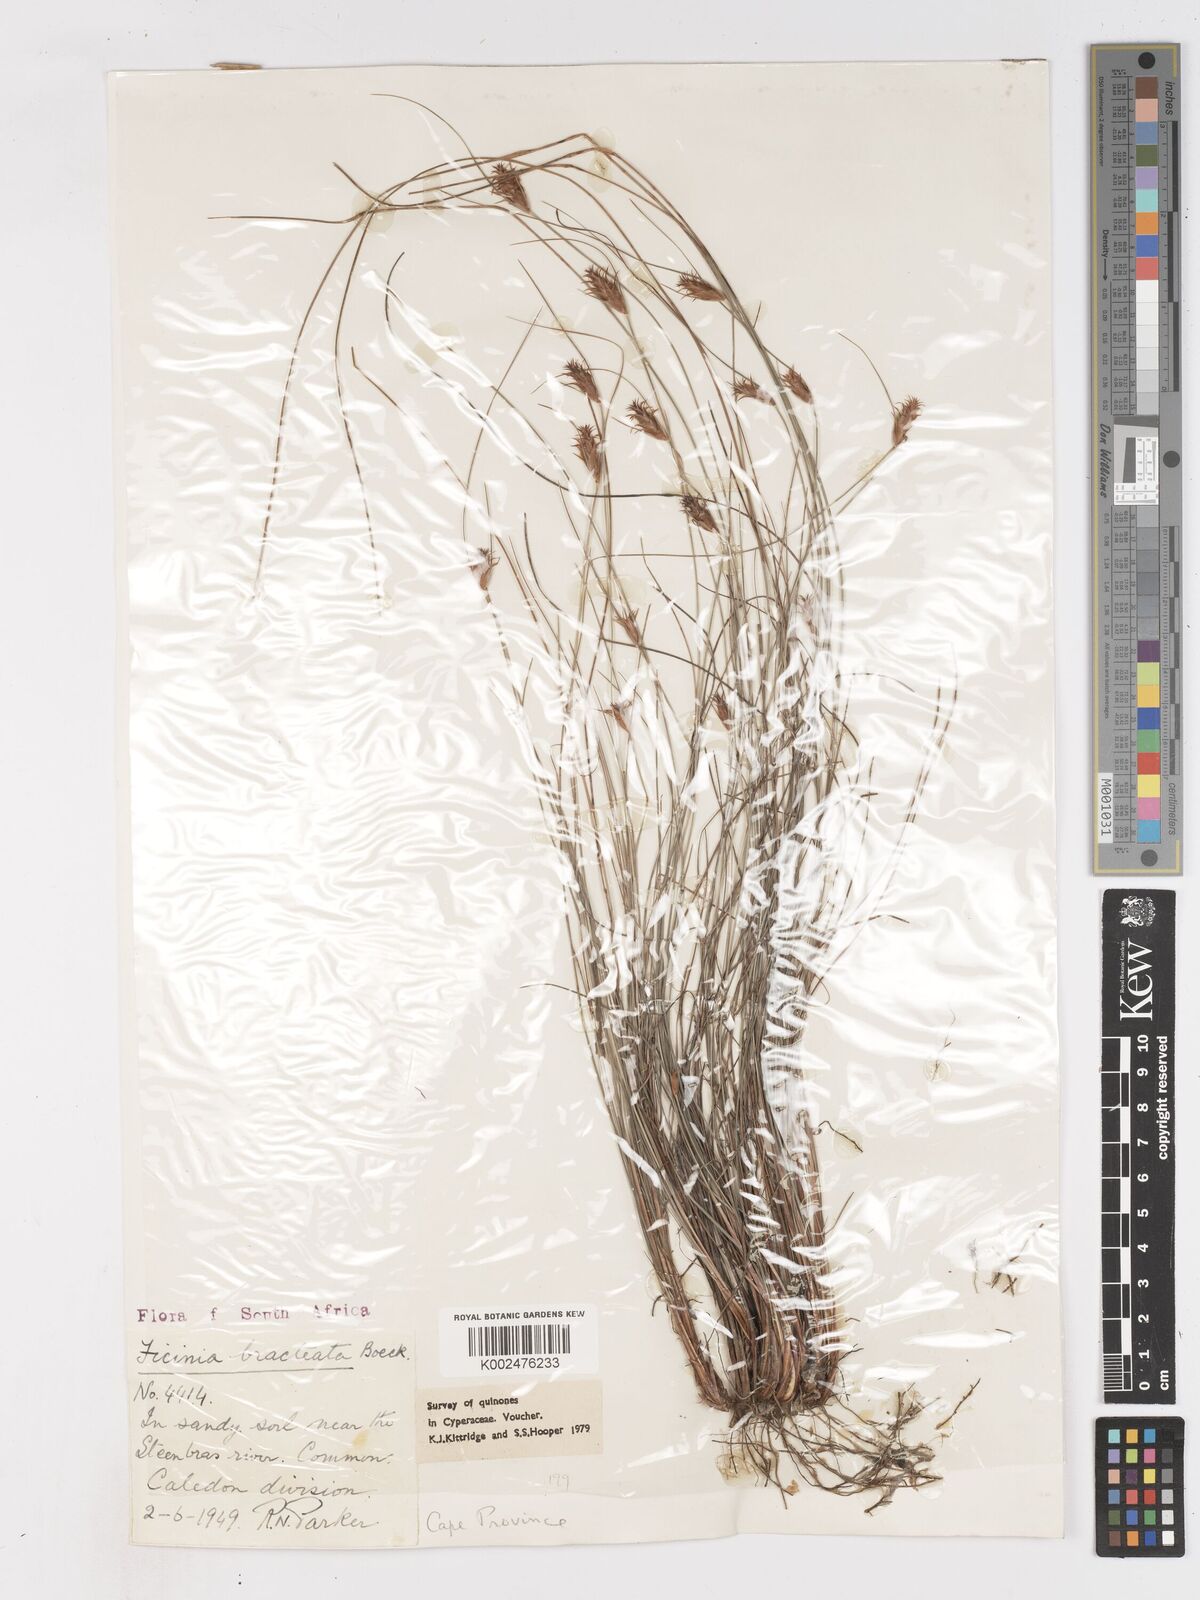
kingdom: Plantae
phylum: Tracheophyta
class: Liliopsida
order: Poales
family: Cyperaceae
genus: Ficinia
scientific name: Ficinia nigrescens
